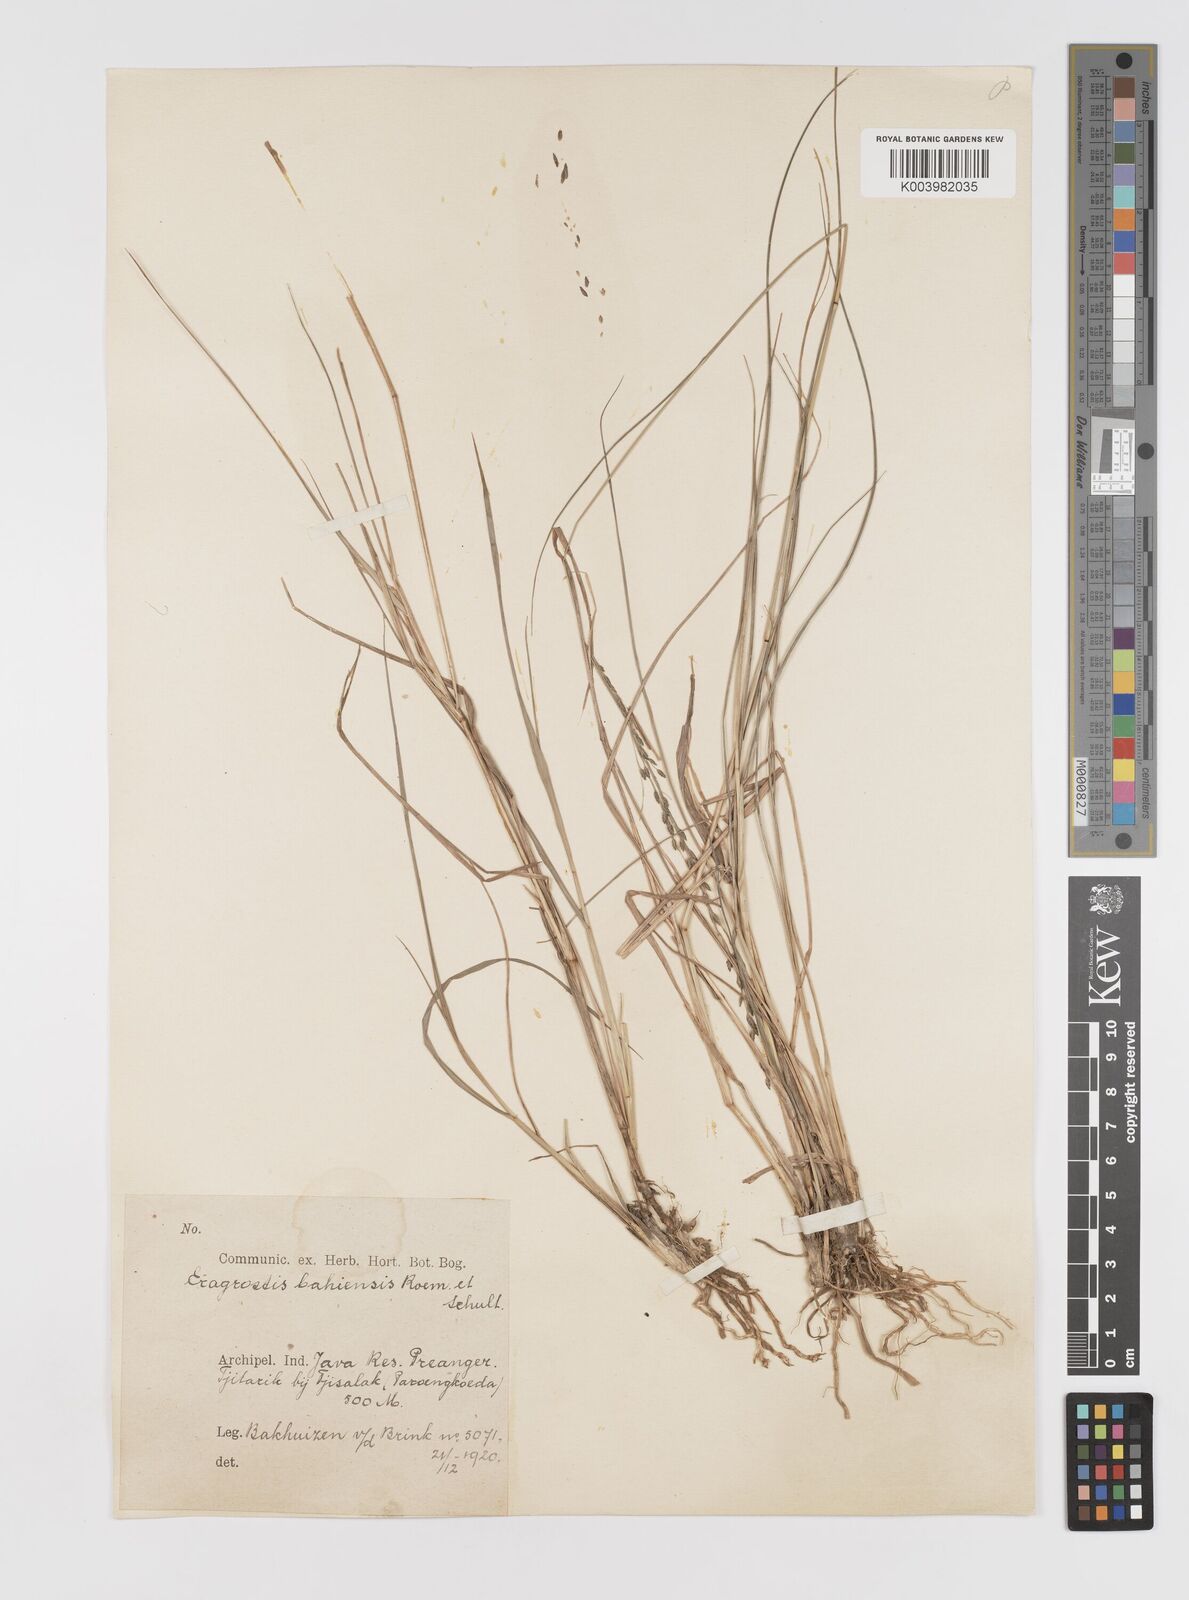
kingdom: Plantae
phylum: Tracheophyta
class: Liliopsida
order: Poales
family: Poaceae
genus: Eragrostis
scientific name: Eragrostis atrovirens
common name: Thalia lovegrass
